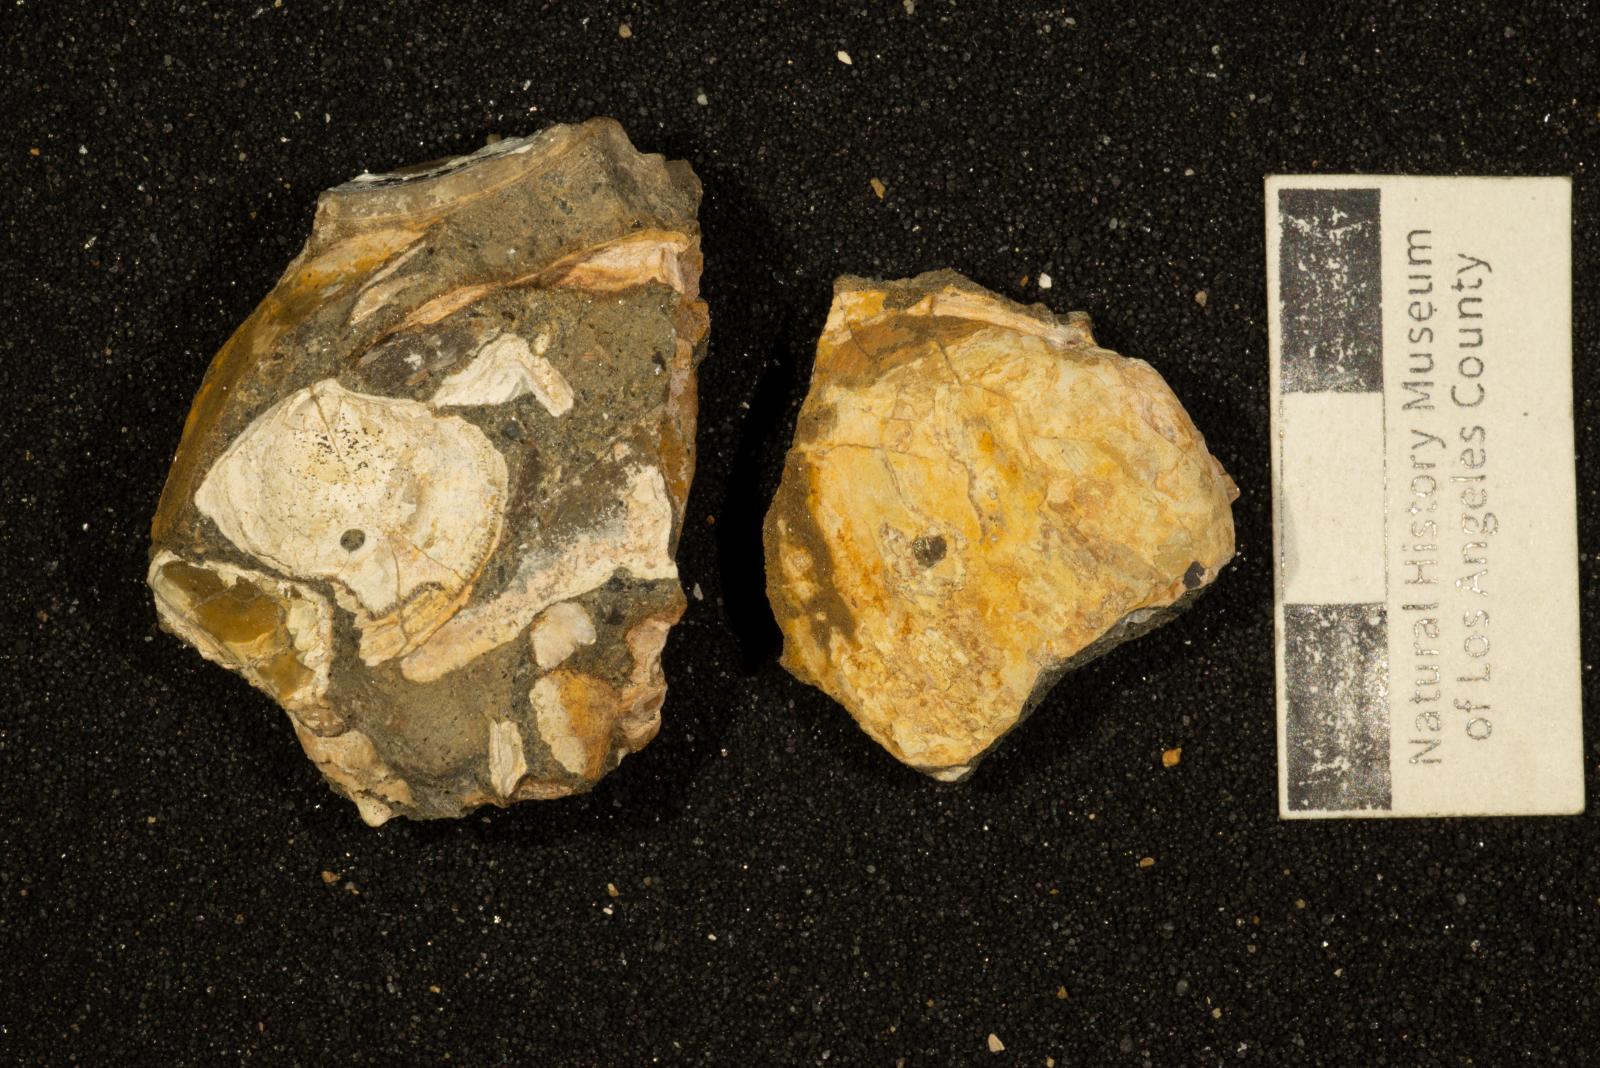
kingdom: Animalia
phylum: Mollusca
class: Bivalvia
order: Carditida
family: Crassatellidae
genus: Crassinella
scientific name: Crassinella
